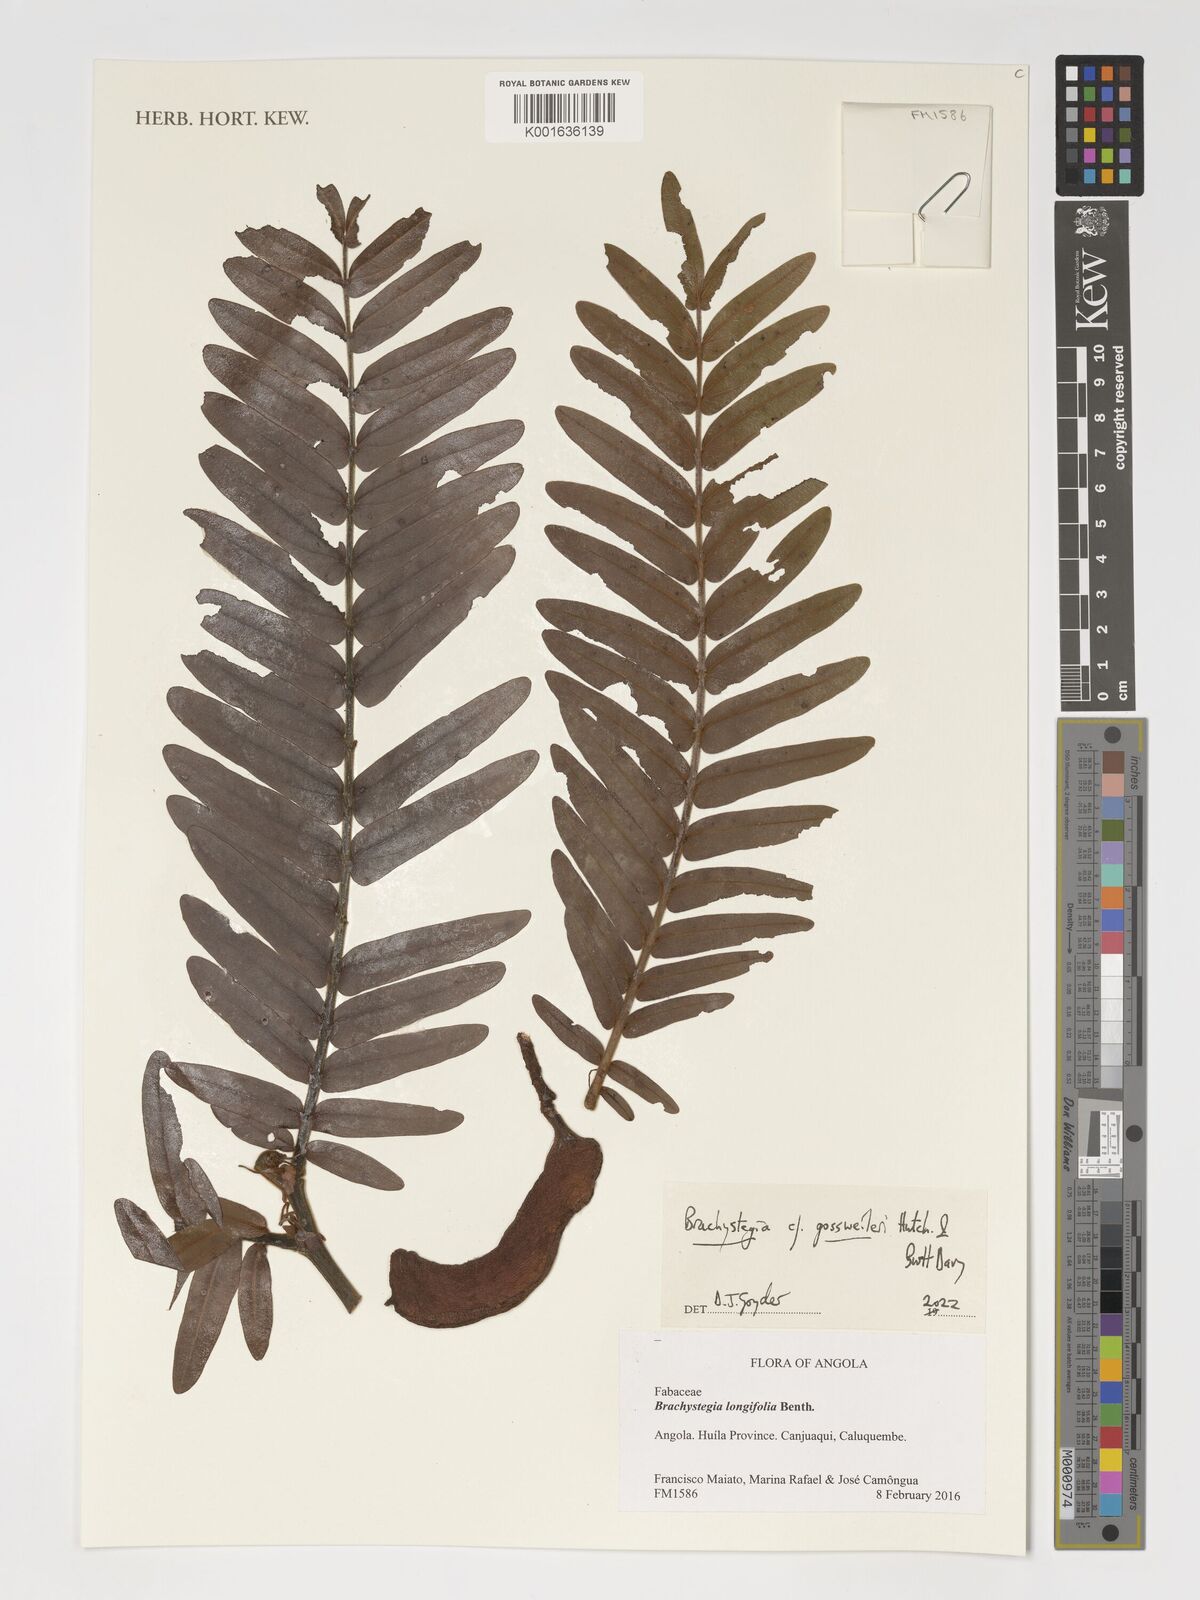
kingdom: Plantae
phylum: Tracheophyta
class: Magnoliopsida
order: Fabales
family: Fabaceae
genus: Brachystegia
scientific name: Brachystegia gossweileri
